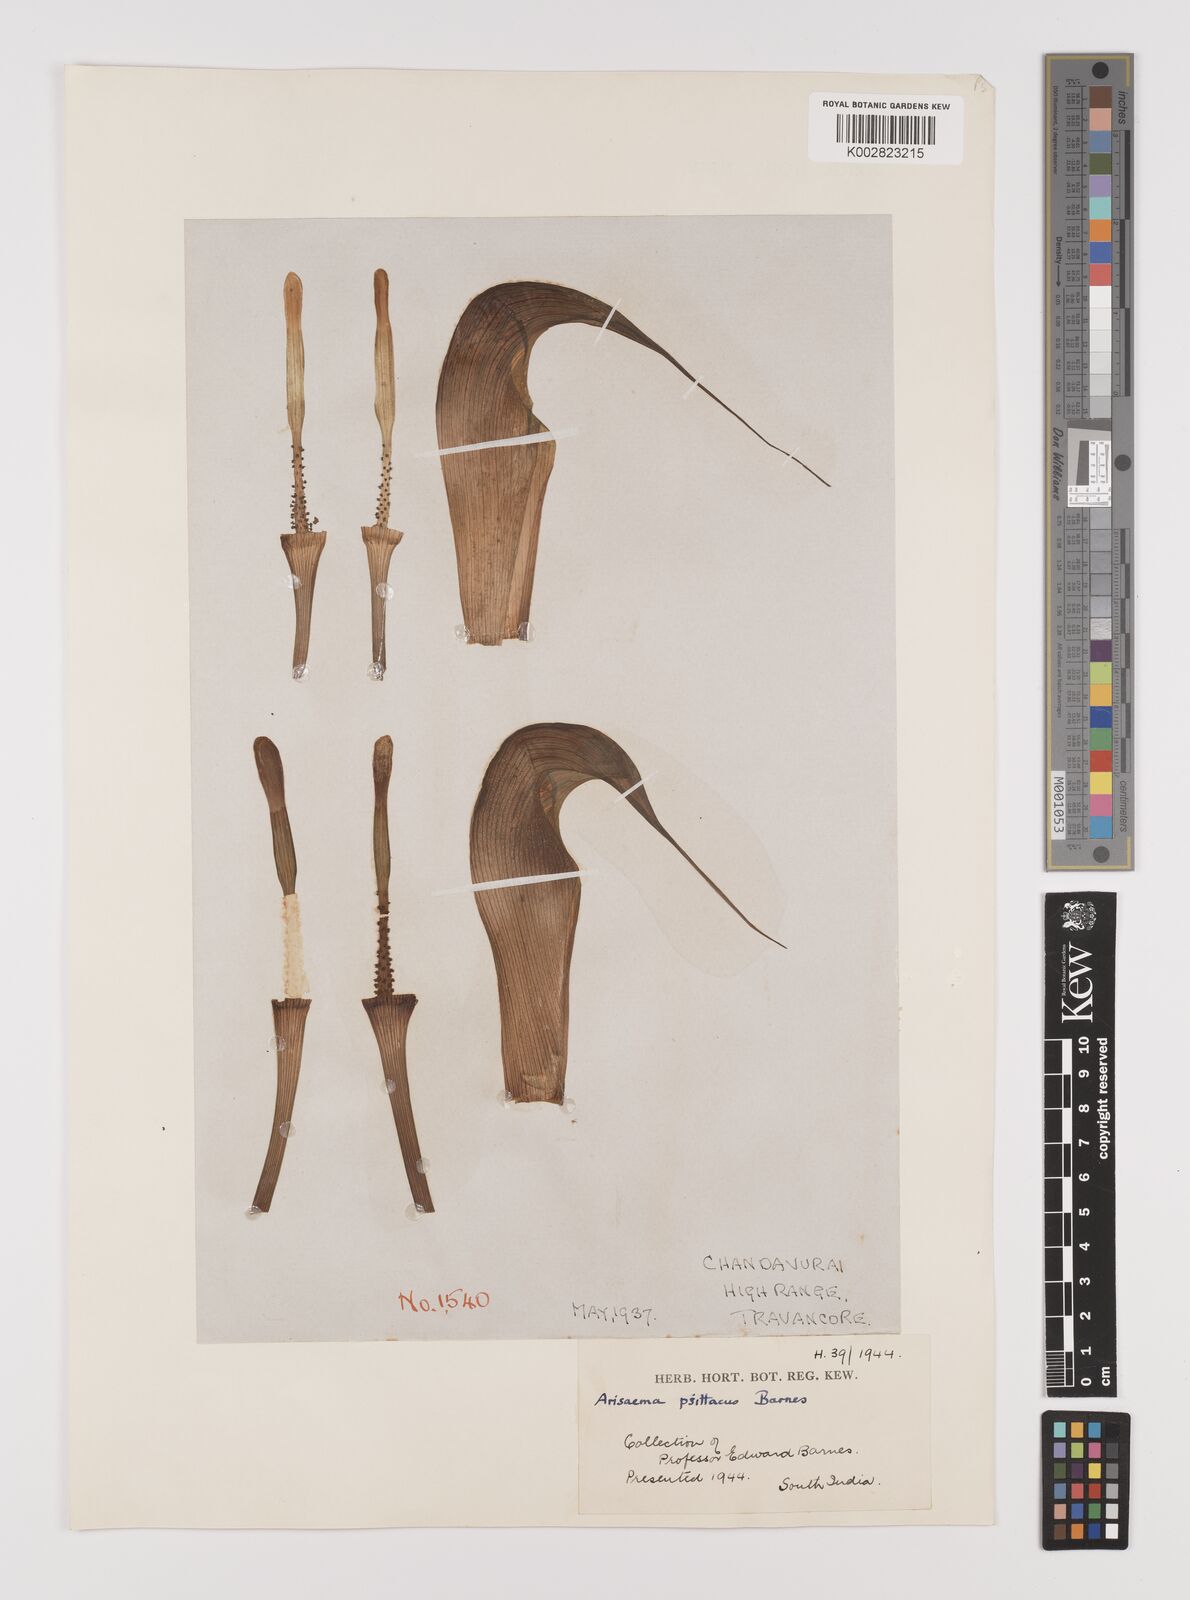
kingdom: Plantae
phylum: Tracheophyta
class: Liliopsida
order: Alismatales
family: Araceae
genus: Arisaema
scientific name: Arisaema psittacus
